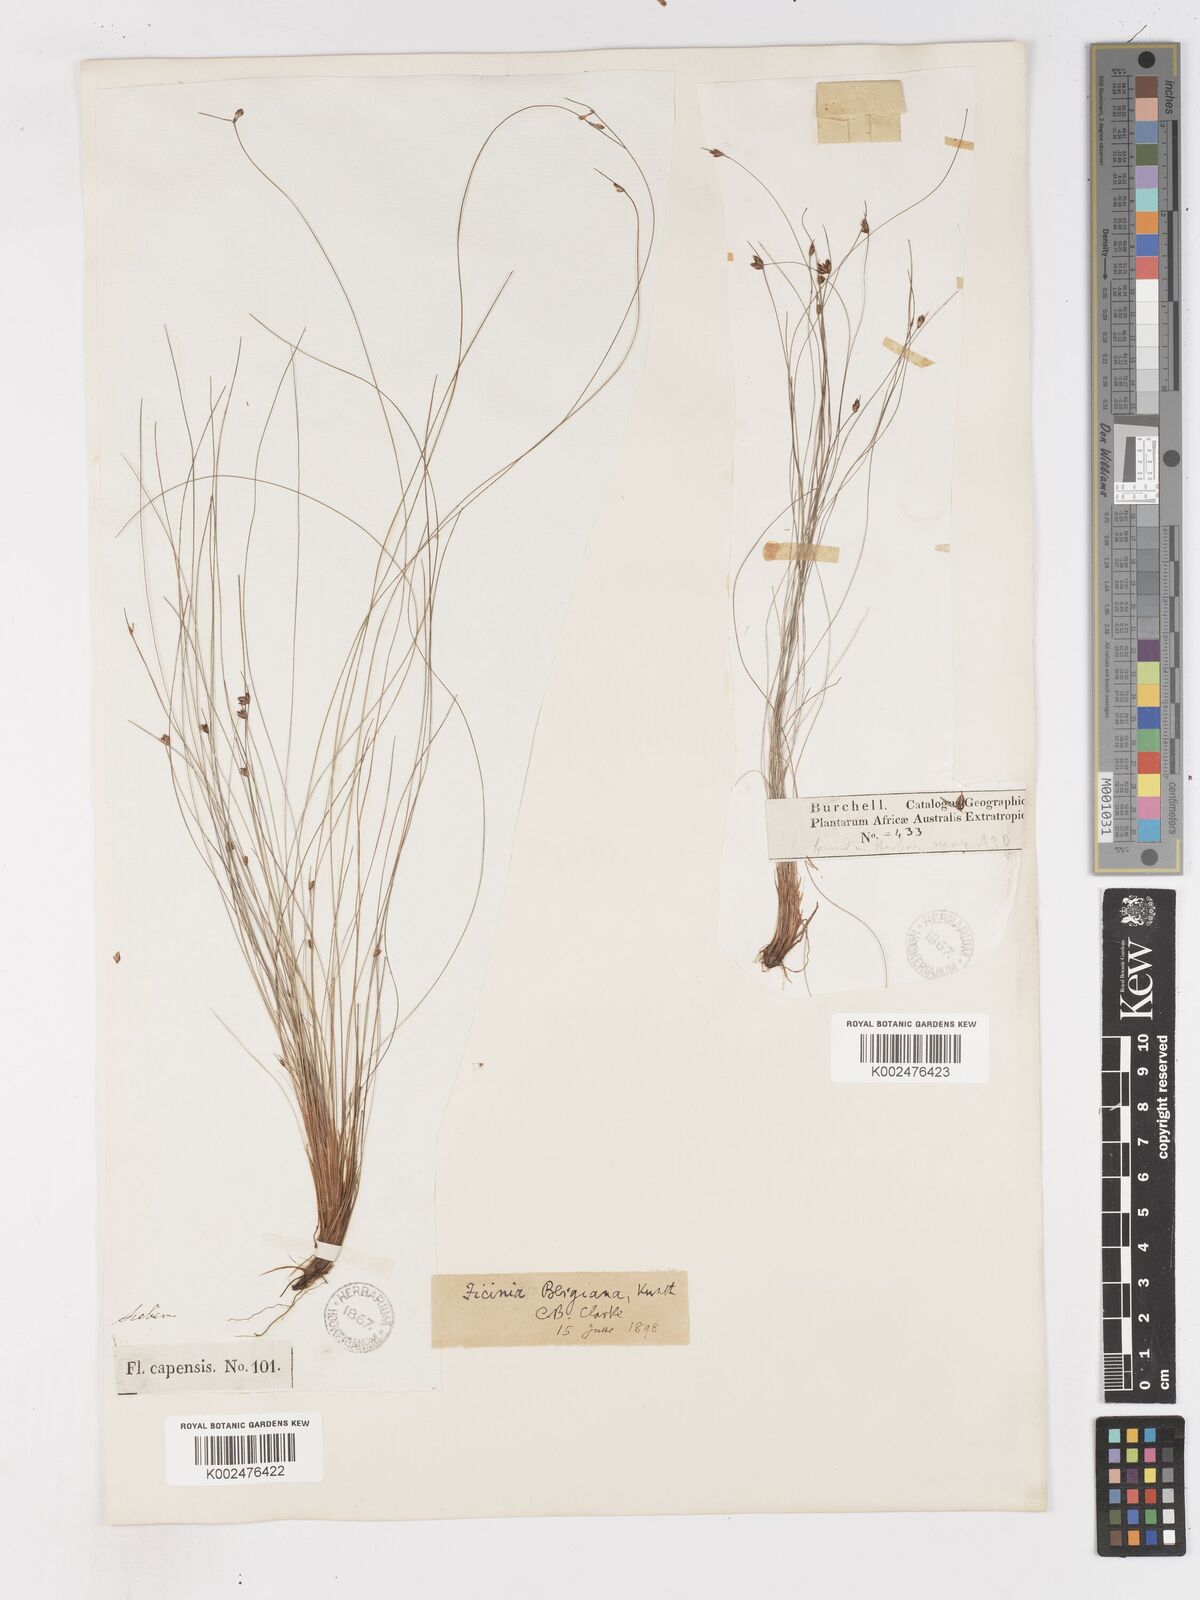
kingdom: Plantae
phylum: Tracheophyta
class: Liliopsida
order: Poales
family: Cyperaceae
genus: Ficinia
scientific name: Ficinia crinita
